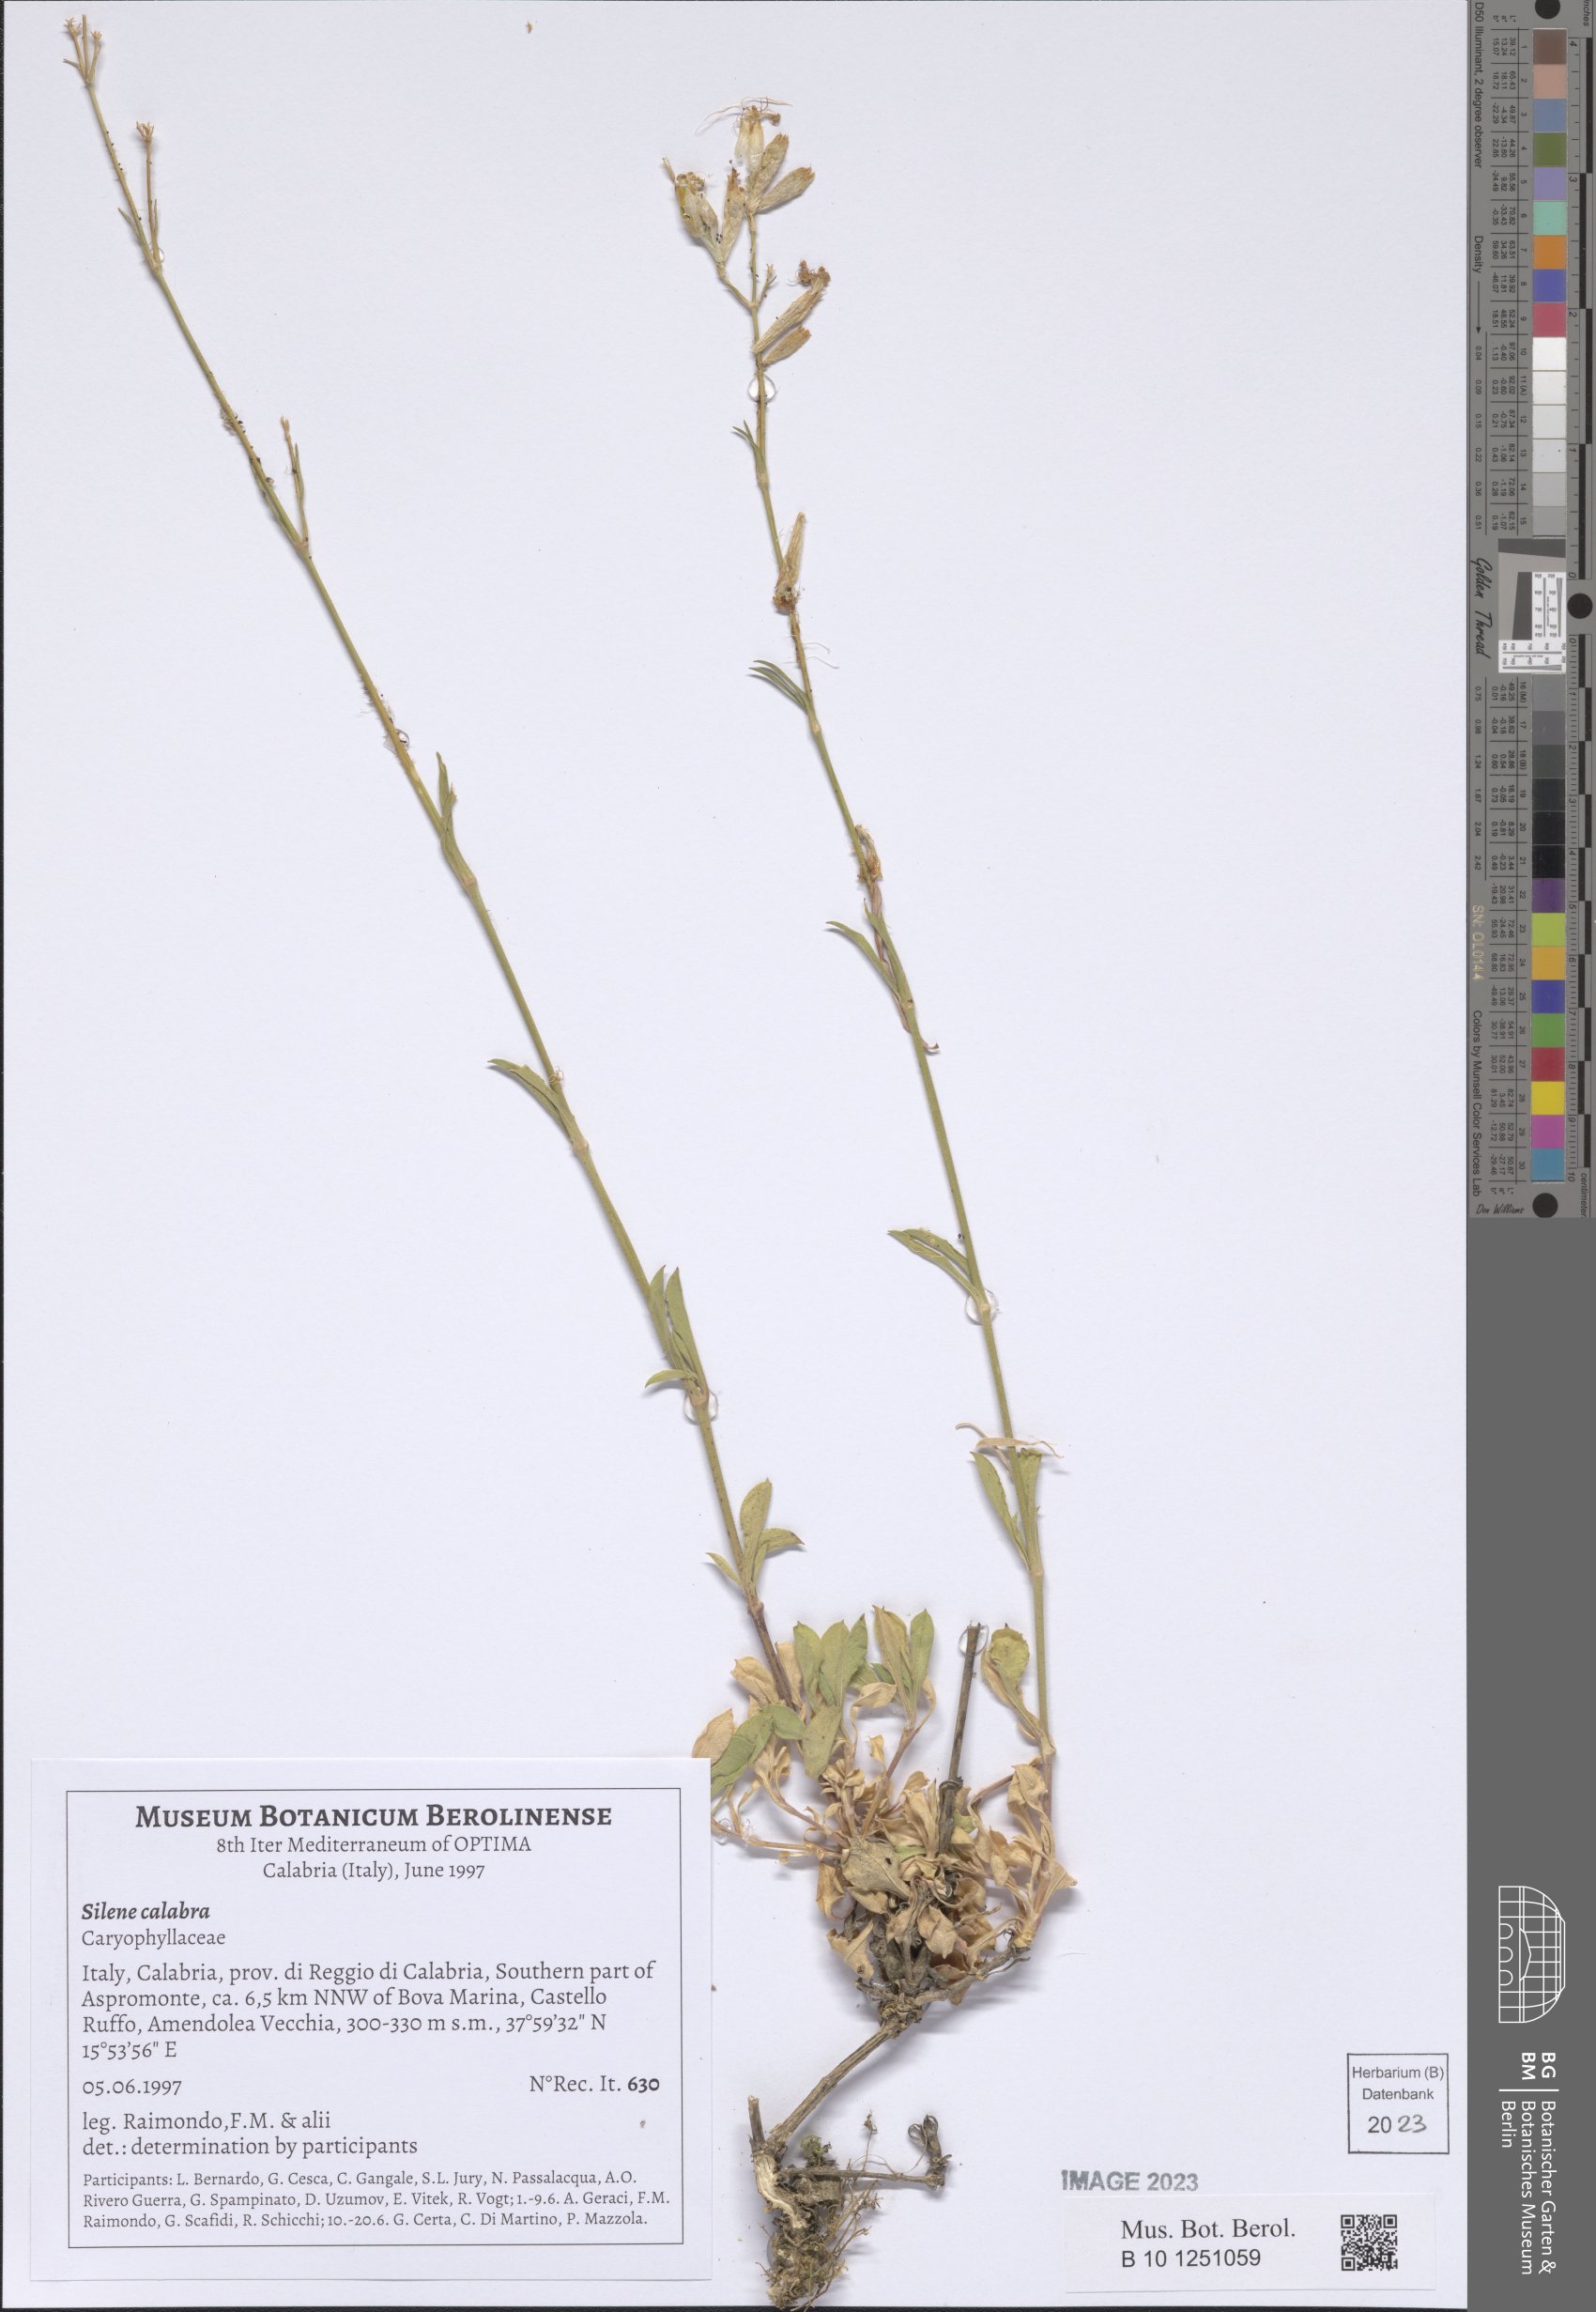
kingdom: Plantae
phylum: Tracheophyta
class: Magnoliopsida
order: Caryophyllales
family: Caryophyllaceae
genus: Silene
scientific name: Silene calabra
